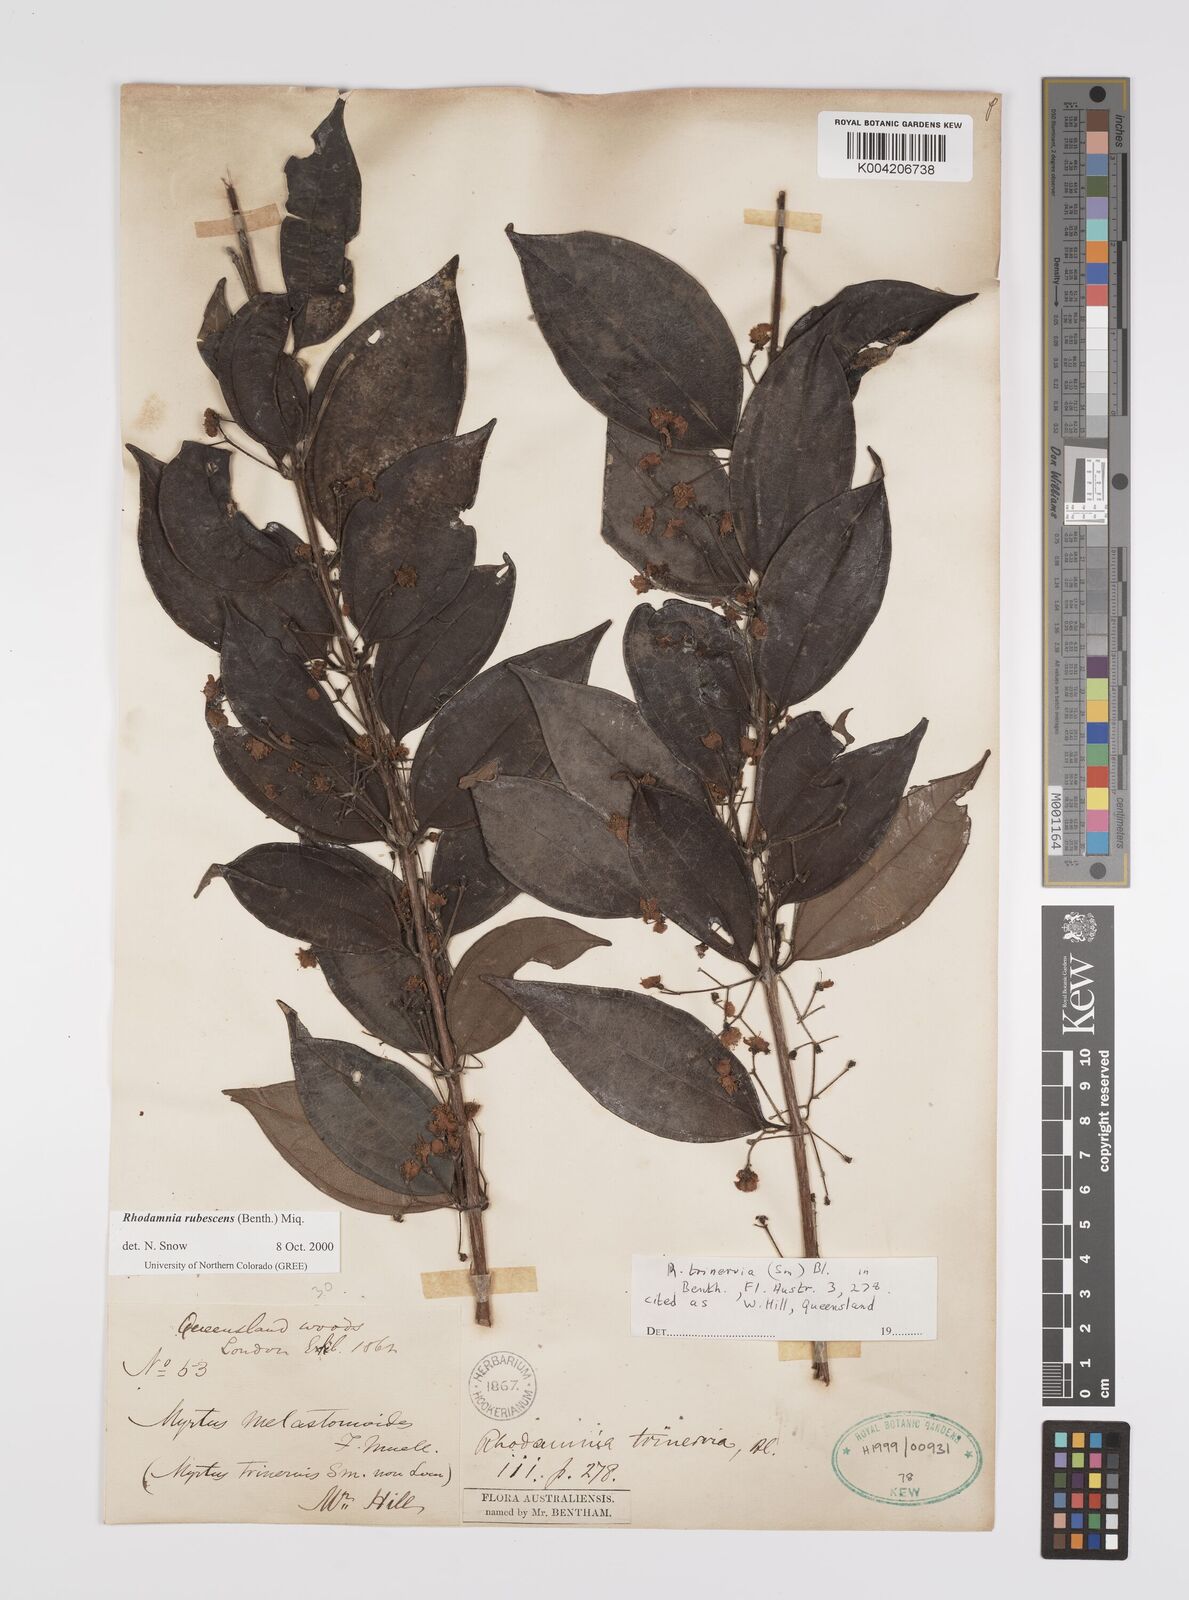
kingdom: Plantae
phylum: Tracheophyta
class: Magnoliopsida
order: Myrtales
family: Myrtaceae
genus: Rhodamnia
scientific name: Rhodamnia rubescens
